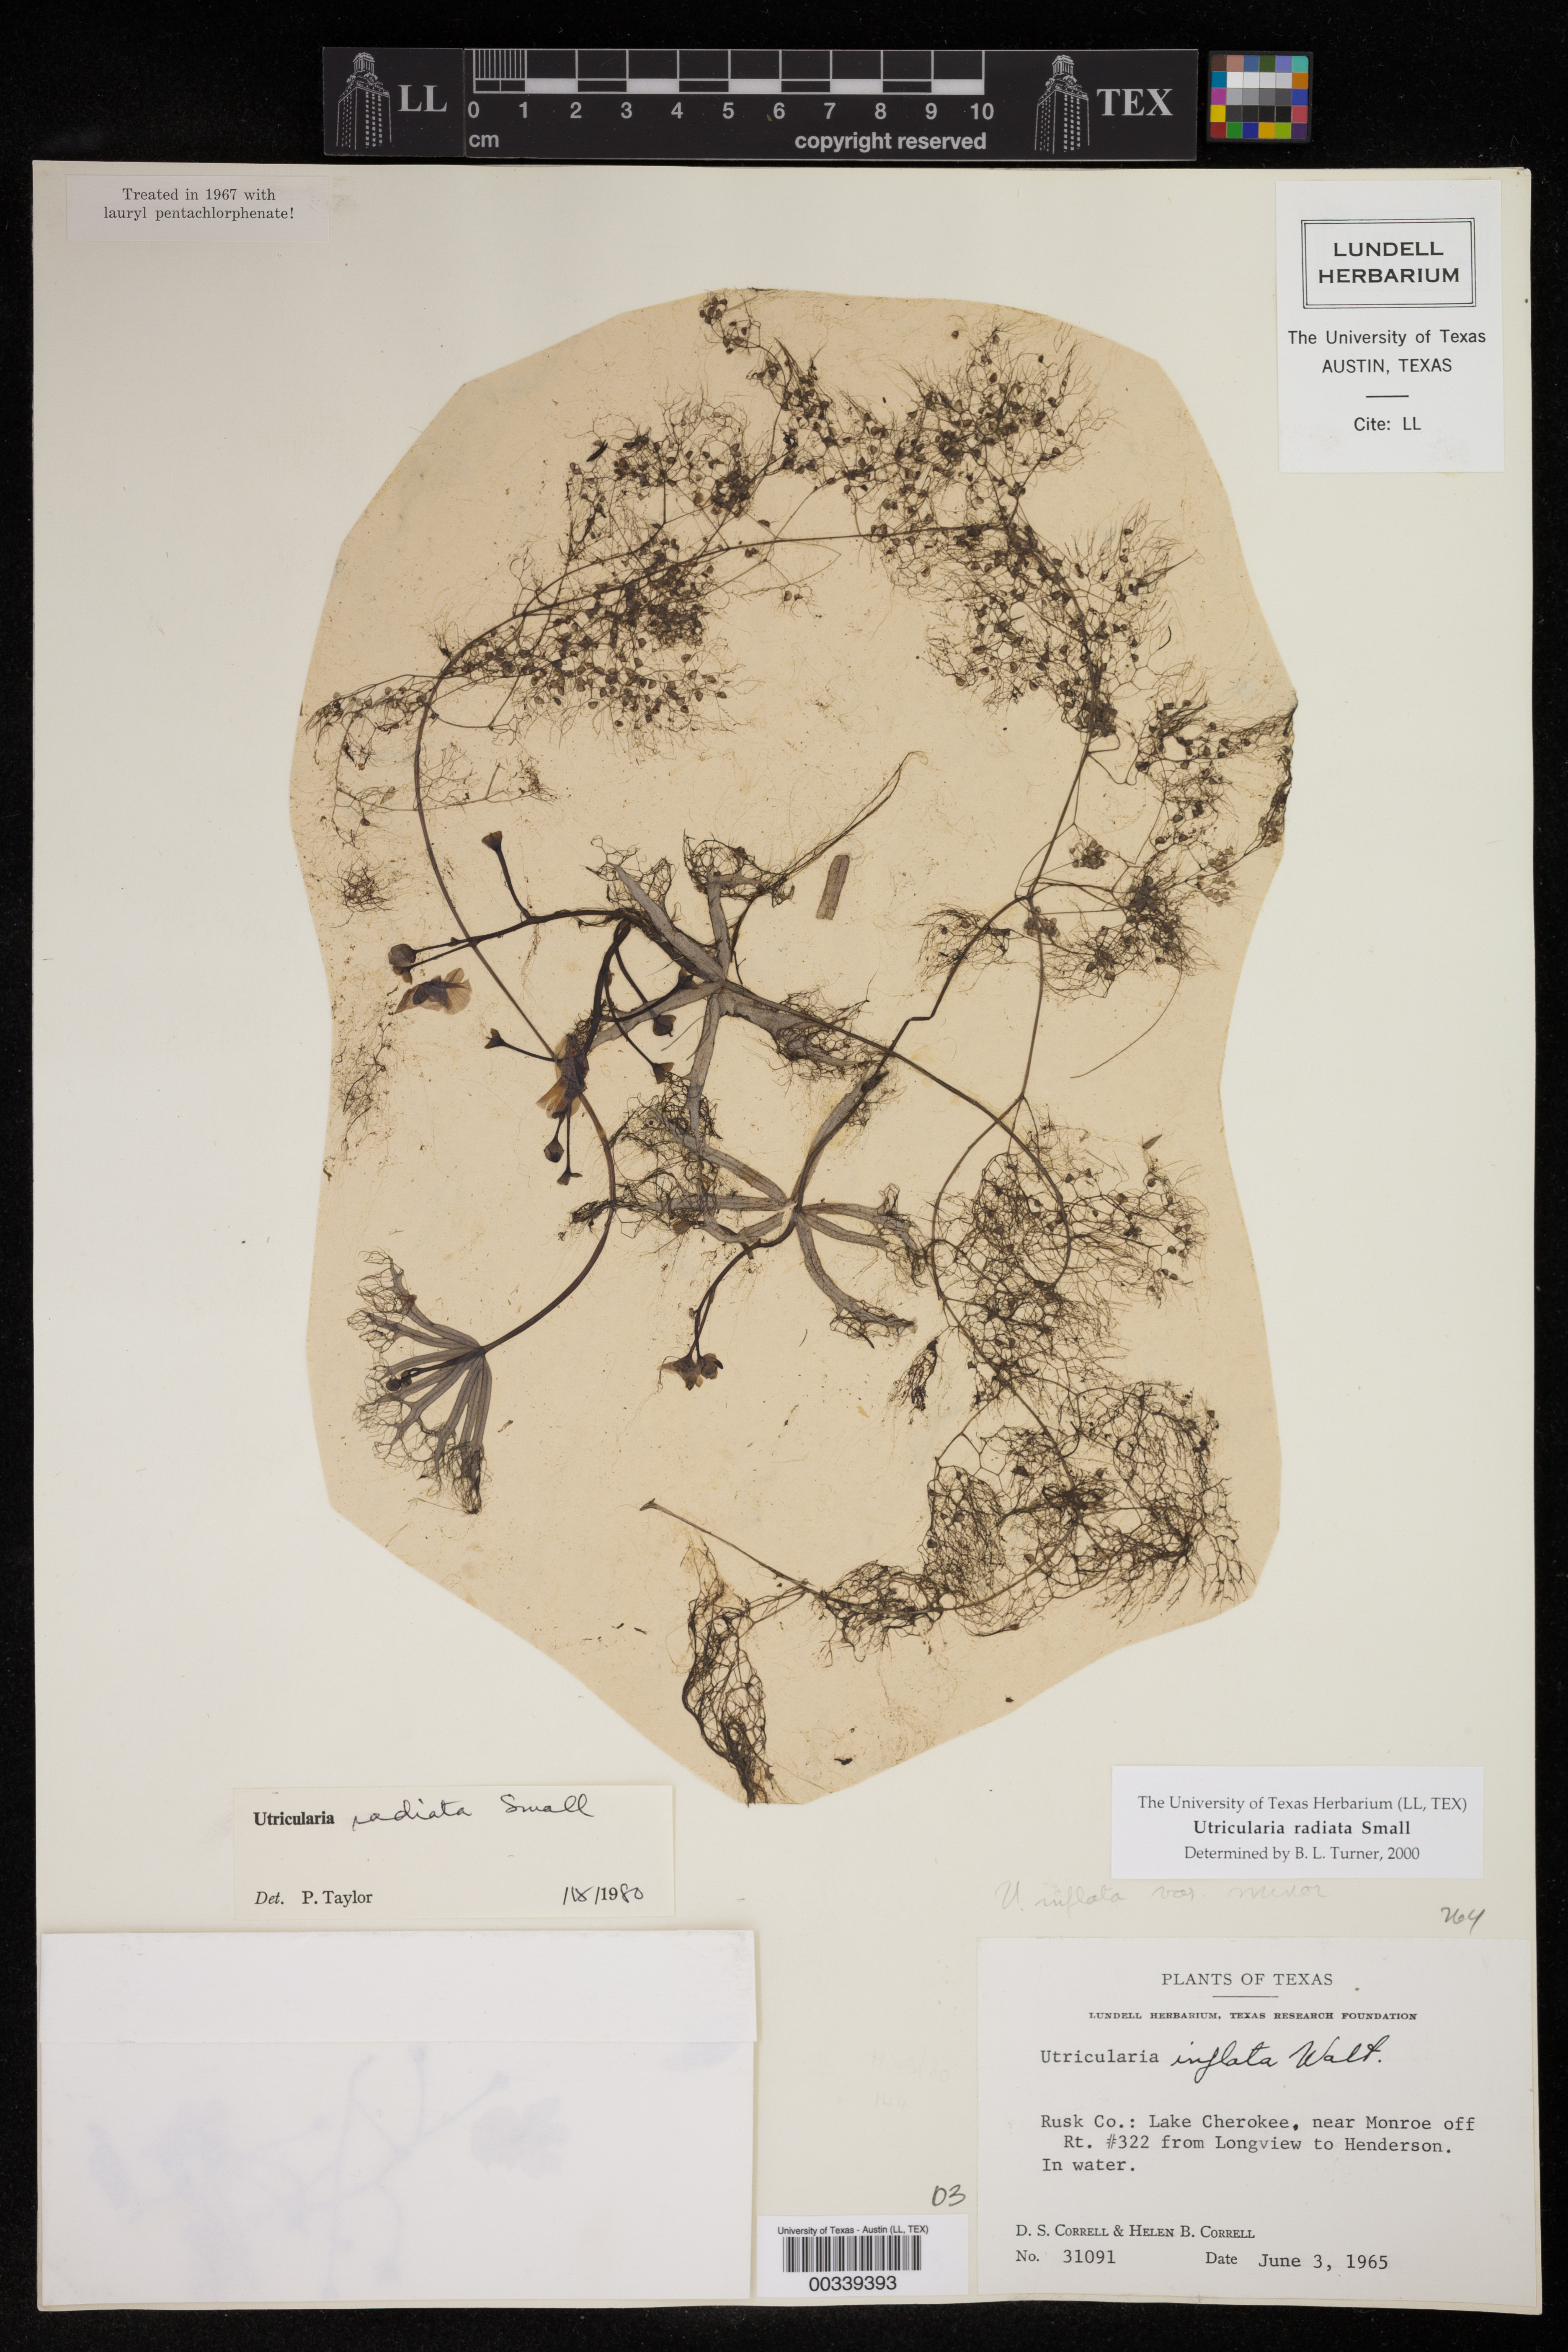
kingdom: Plantae
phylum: Tracheophyta
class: Magnoliopsida
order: Lamiales
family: Lentibulariaceae
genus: Utricularia
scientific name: Utricularia radiata
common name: Floating bladderwort
